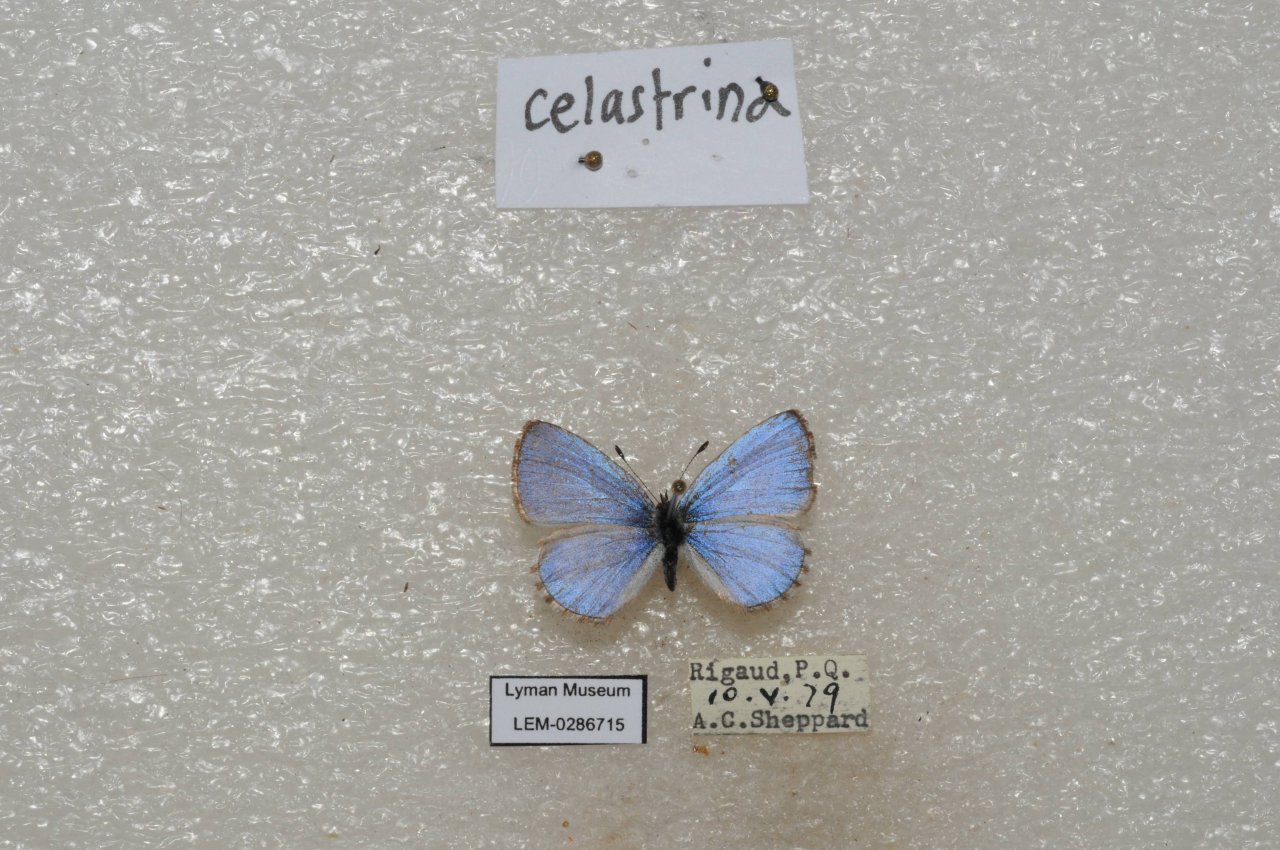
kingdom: Animalia
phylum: Arthropoda
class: Insecta
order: Lepidoptera
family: Lycaenidae
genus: Celastrina
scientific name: Celastrina lucia
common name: Northern Spring Azure
